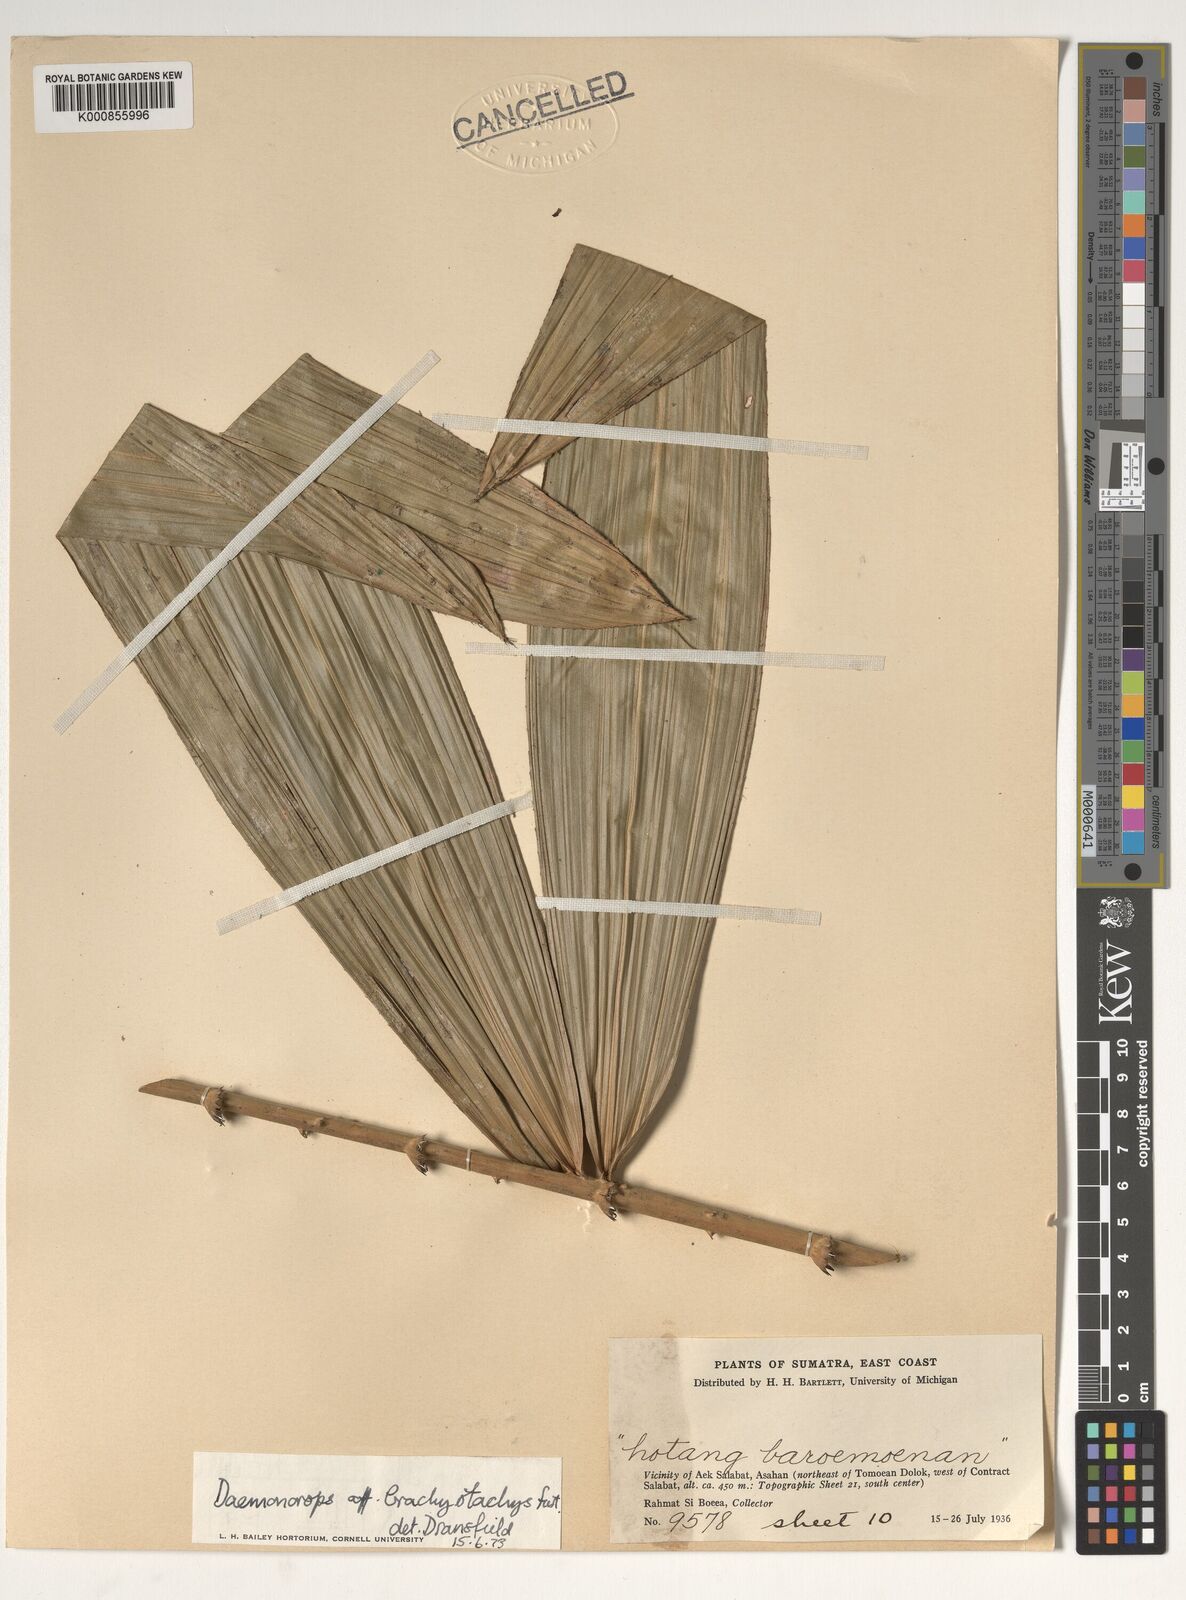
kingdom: Plantae
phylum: Tracheophyta
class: Liliopsida
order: Arecales
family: Arecaceae
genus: Calamus
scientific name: Calamus
